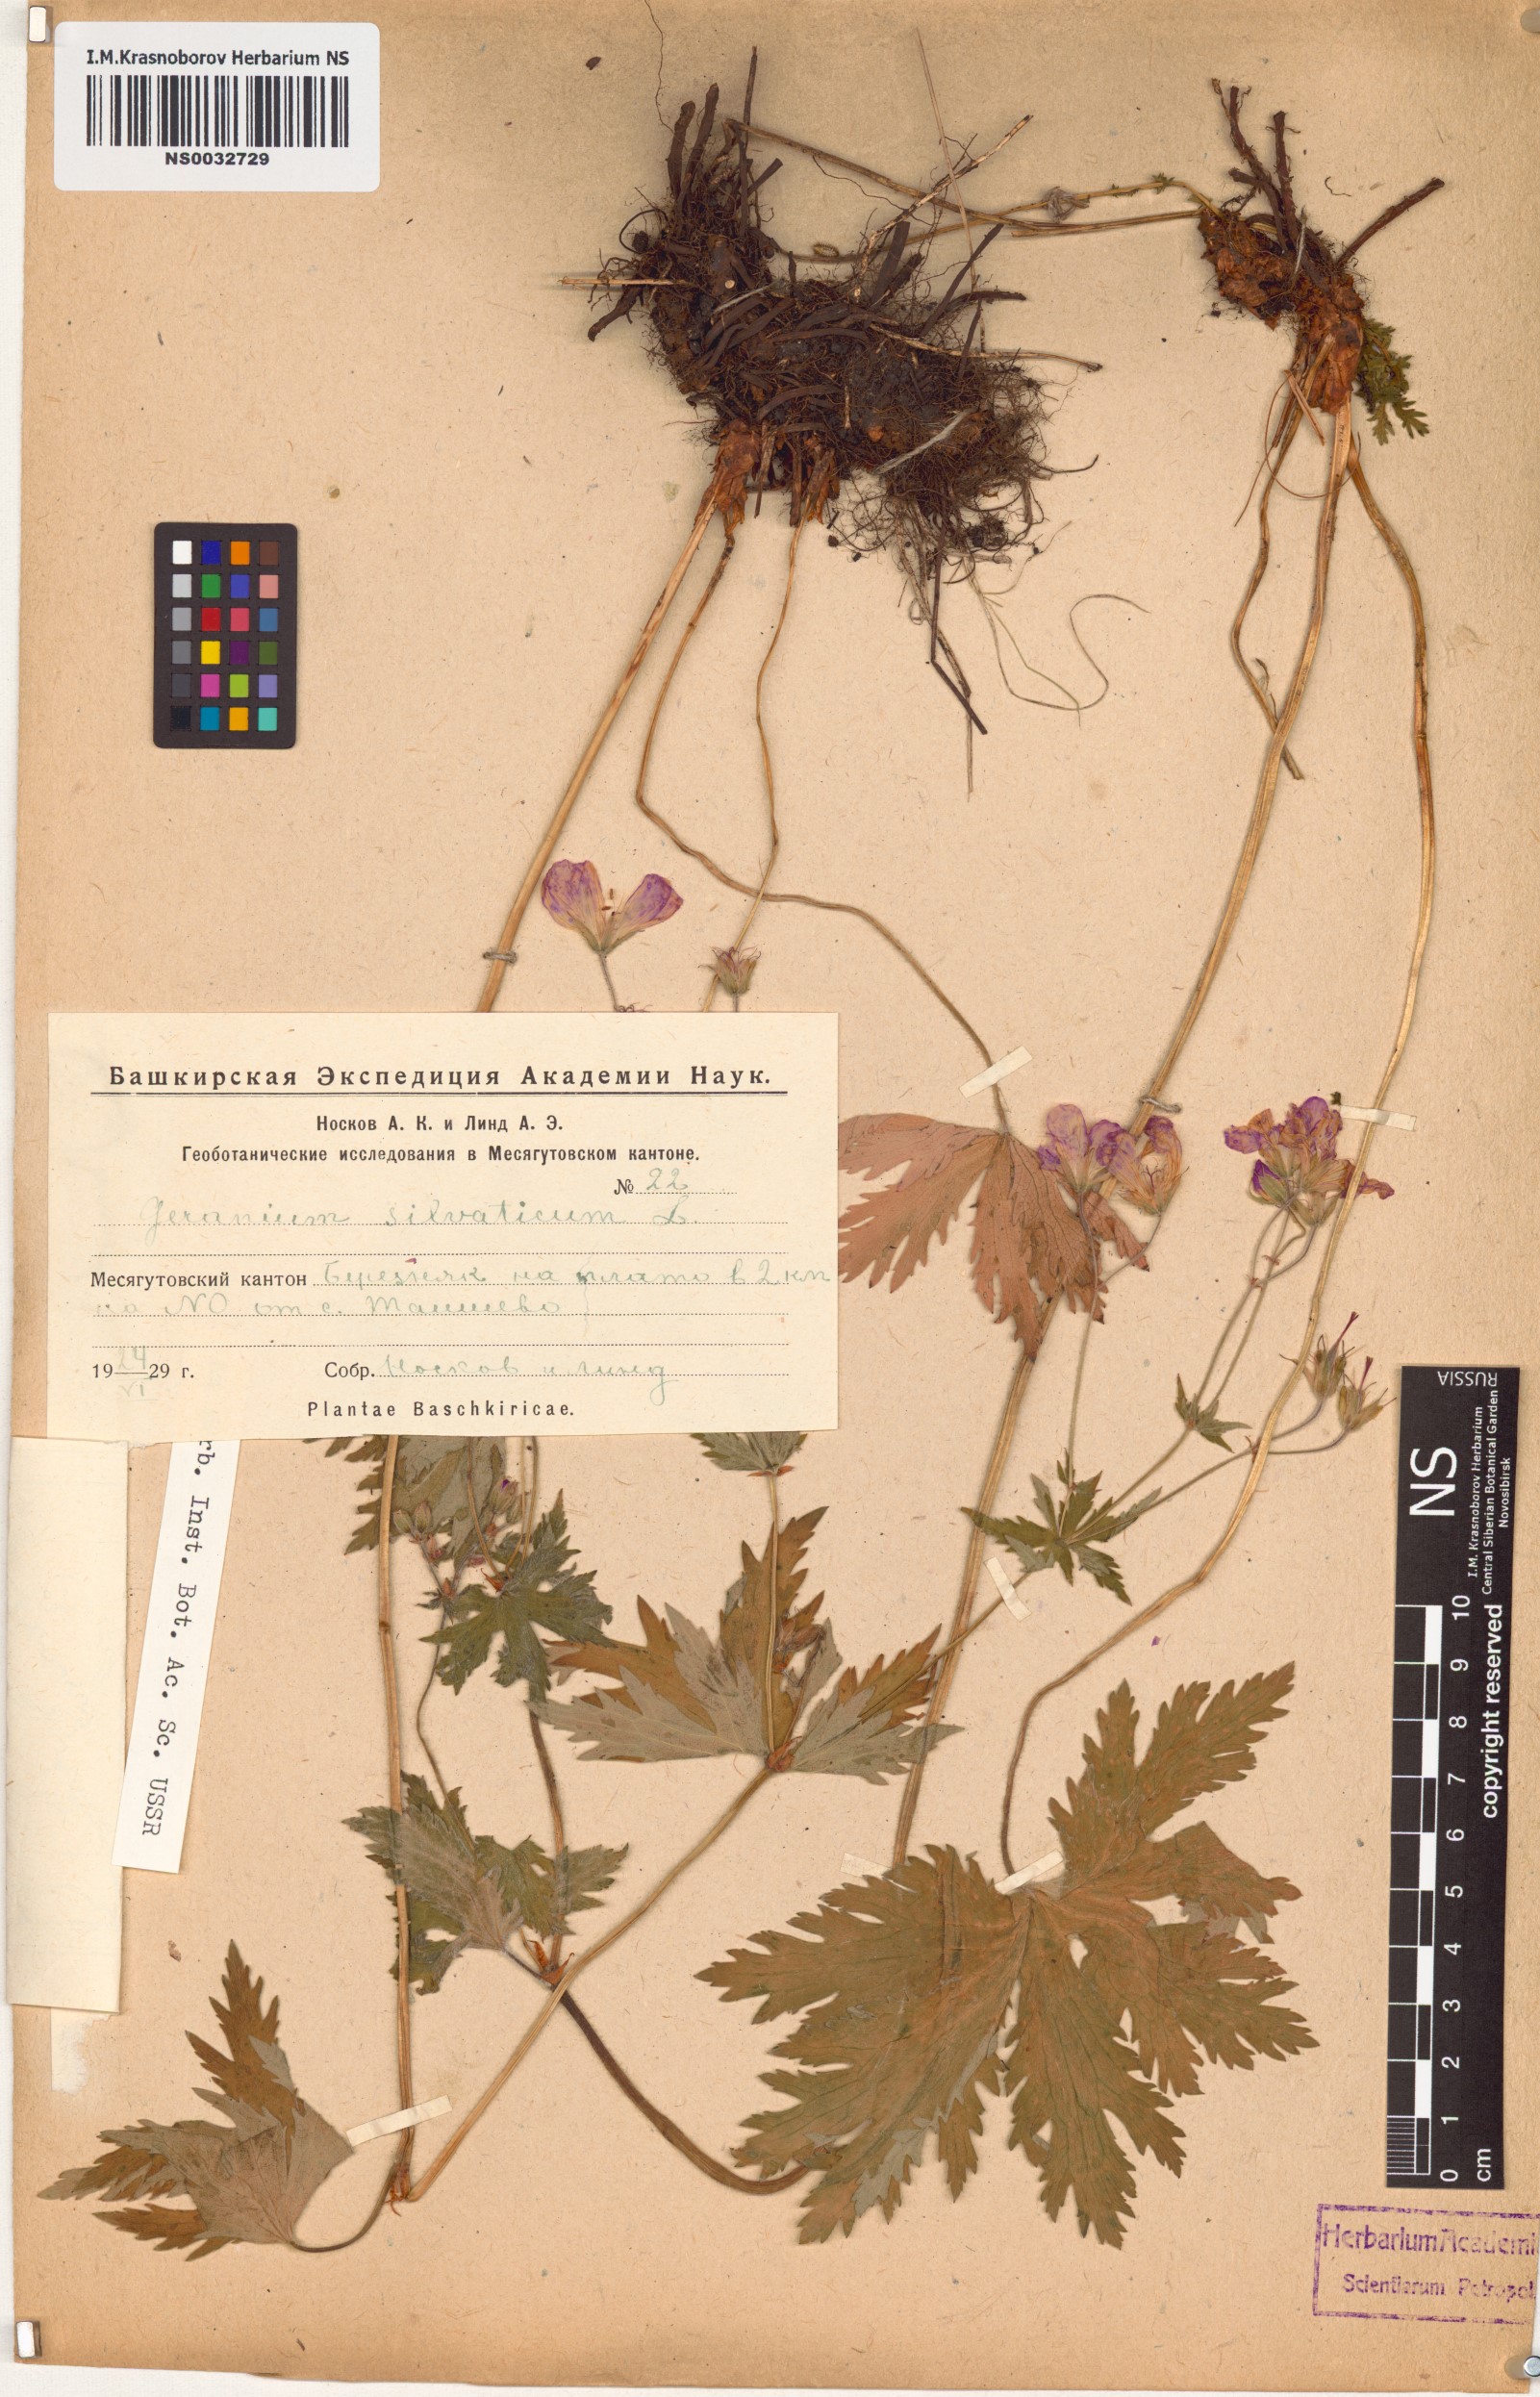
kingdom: Plantae
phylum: Tracheophyta
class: Magnoliopsida
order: Geraniales
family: Geraniaceae
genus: Geranium
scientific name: Geranium sylvaticum
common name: Wood crane's-bill
